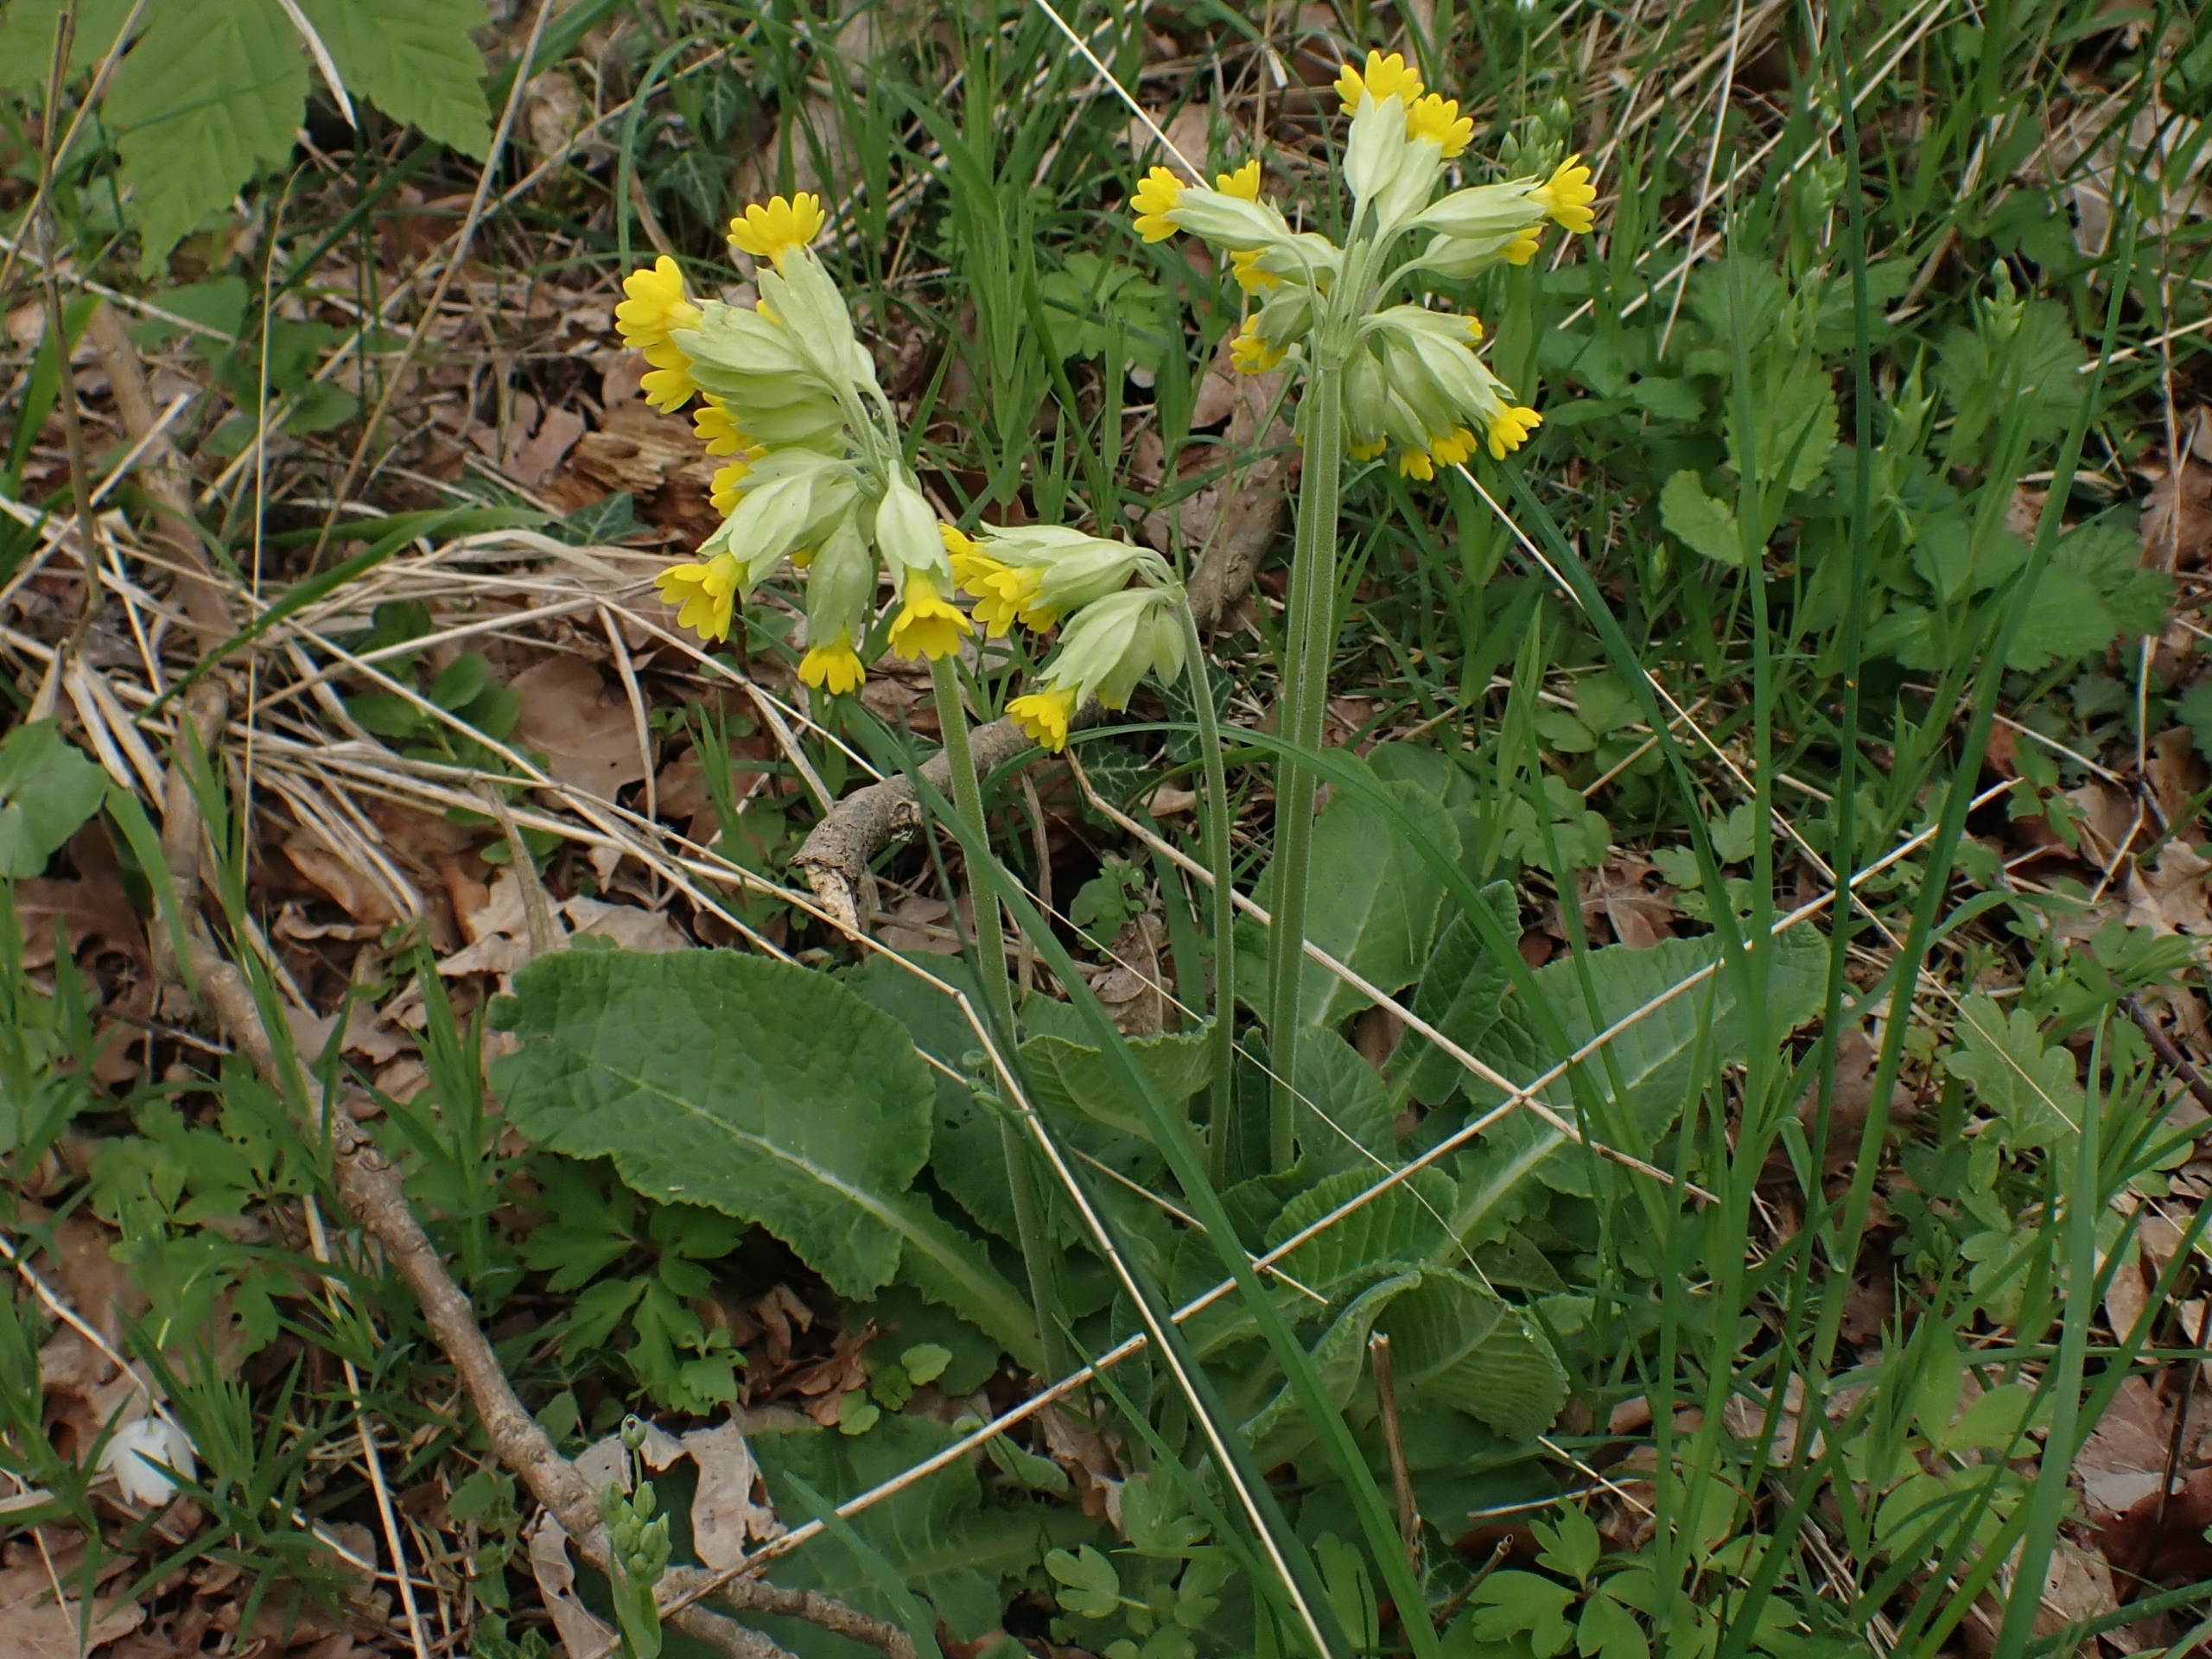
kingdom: Plantae
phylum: Tracheophyta
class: Magnoliopsida
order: Ericales
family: Primulaceae
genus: Primula
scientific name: Primula veris
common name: Hulkravet kodriver
